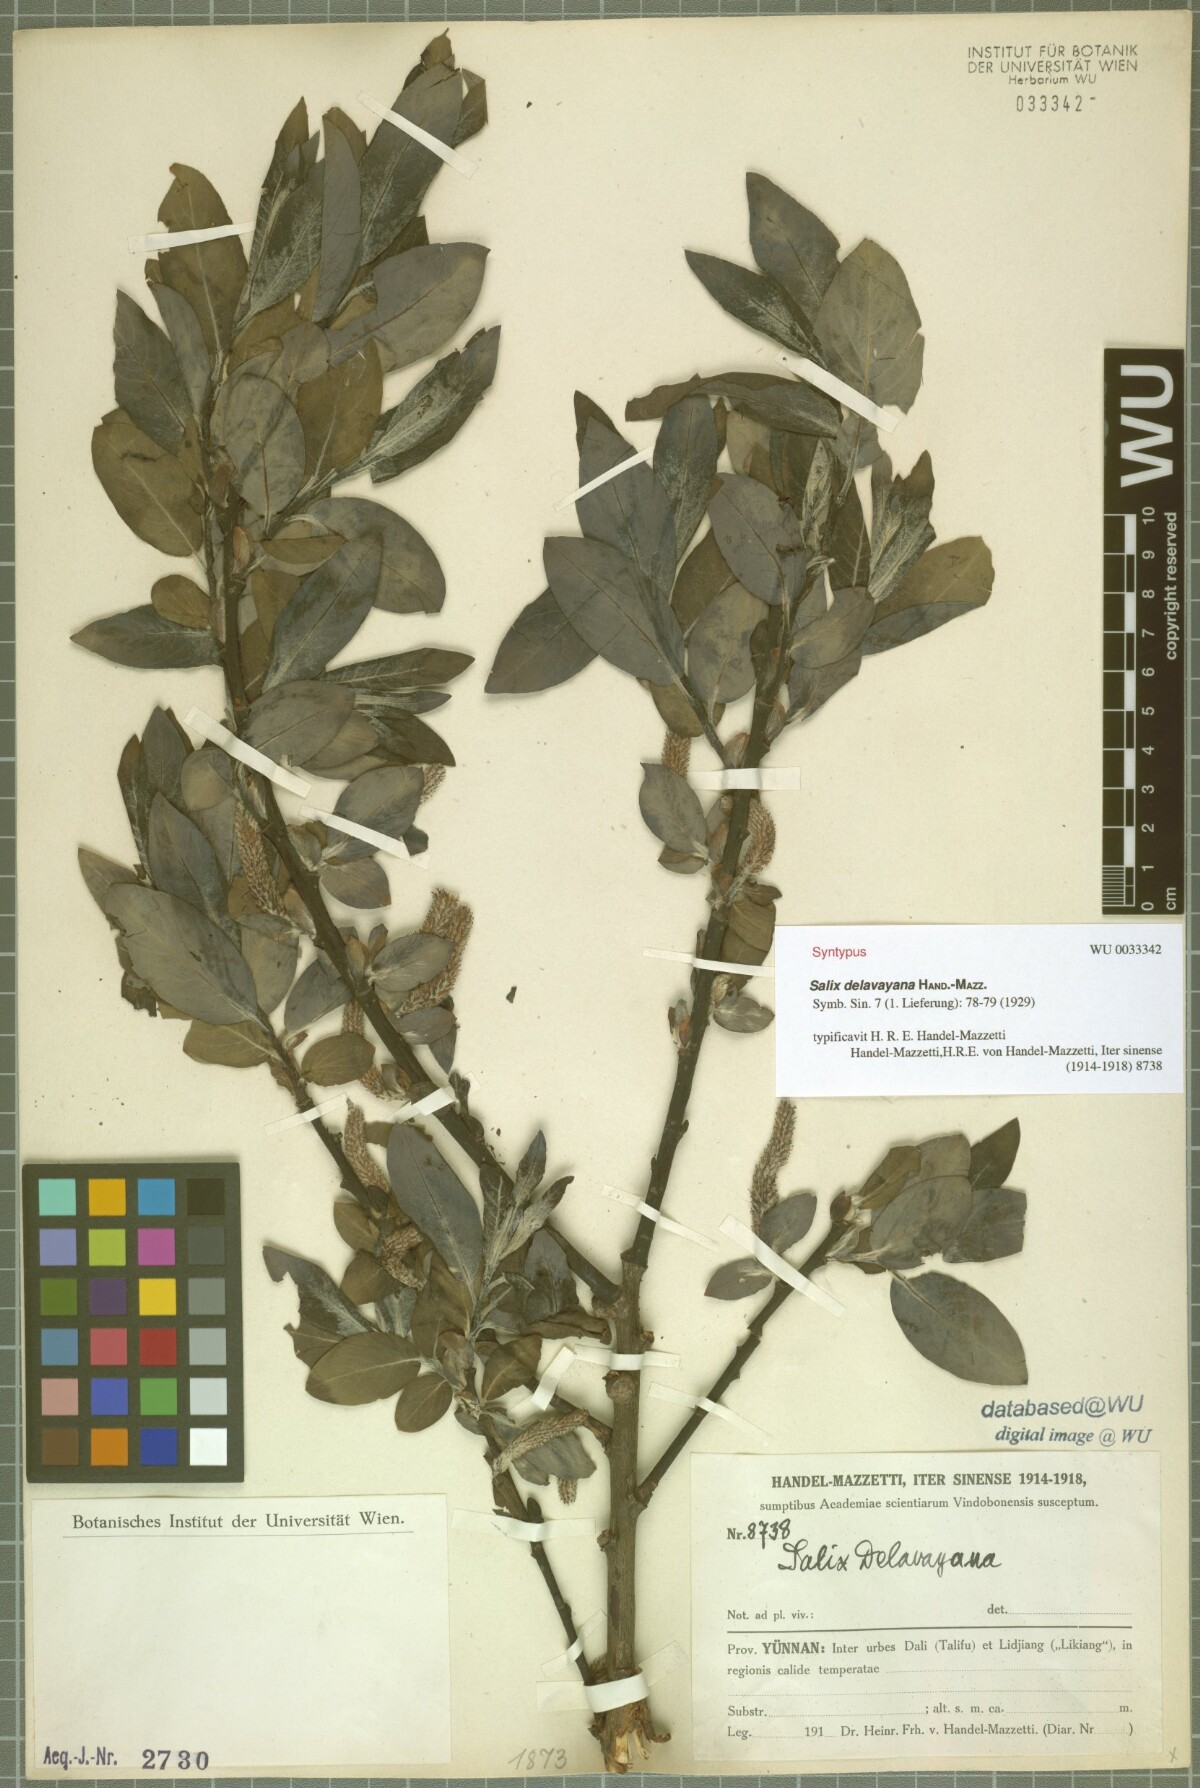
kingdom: Plantae
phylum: Tracheophyta
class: Magnoliopsida
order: Malpighiales
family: Salicaceae
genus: Salix
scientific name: Salix delavayana
